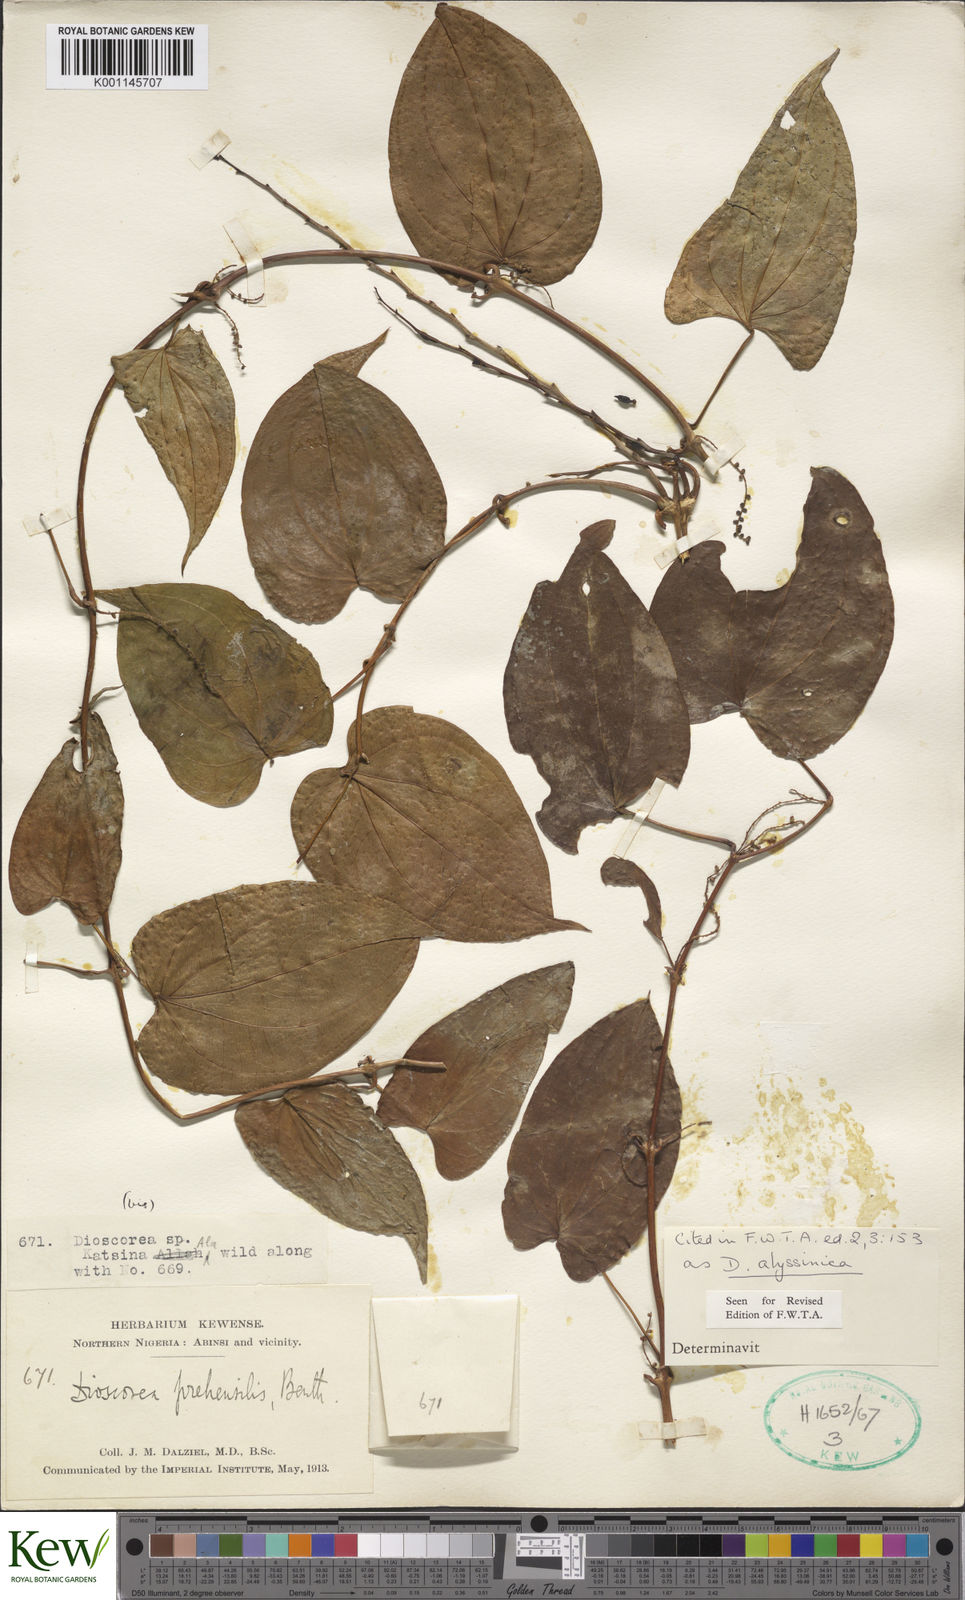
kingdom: Plantae
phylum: Tracheophyta
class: Liliopsida
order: Dioscoreales
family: Dioscoreaceae
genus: Dioscorea
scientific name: Dioscorea abyssinica
